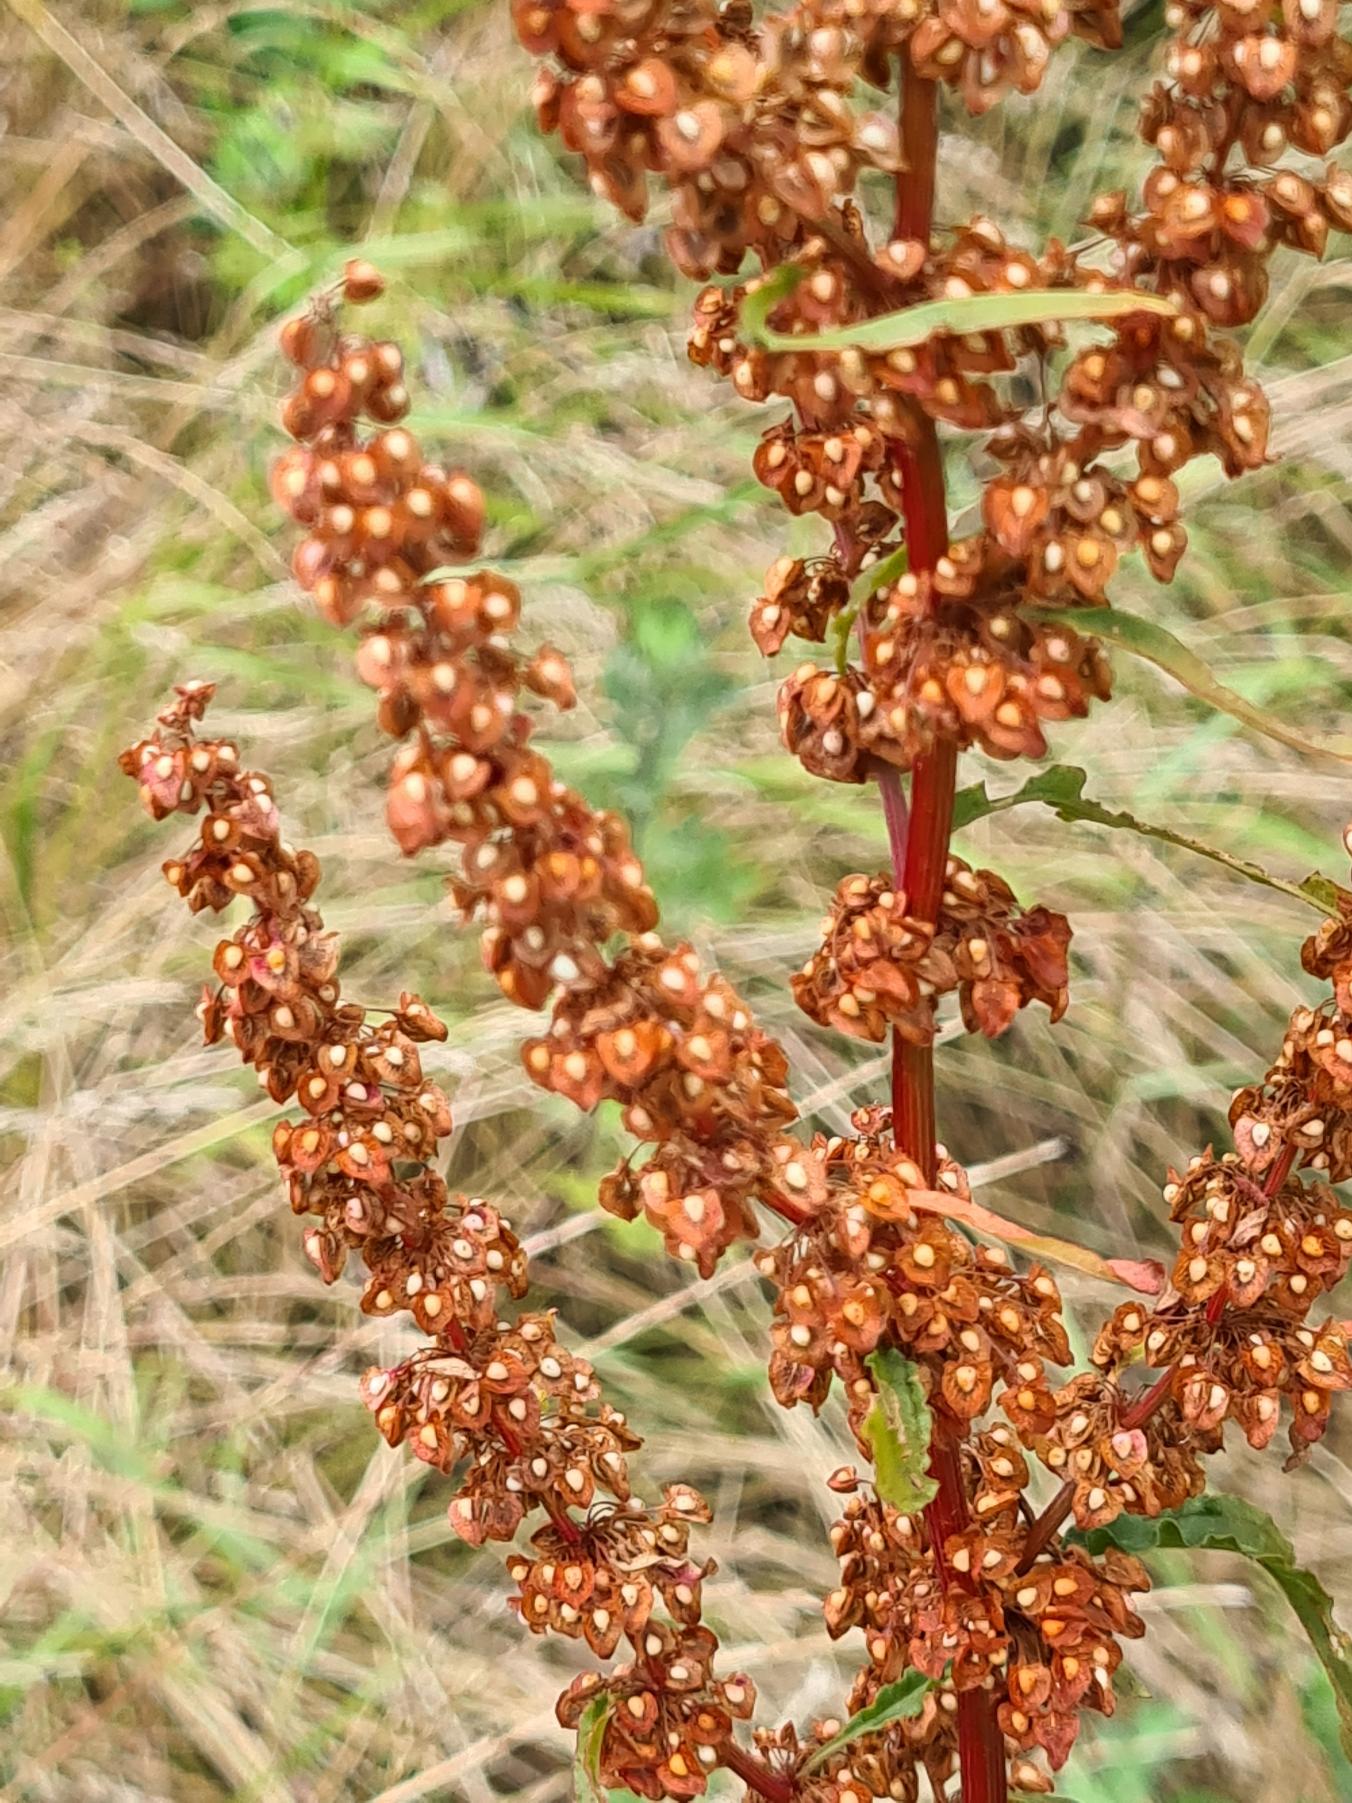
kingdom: Plantae
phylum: Tracheophyta
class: Magnoliopsida
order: Caryophyllales
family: Polygonaceae
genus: Rumex
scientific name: Rumex crispus
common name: Kruset skræppe
